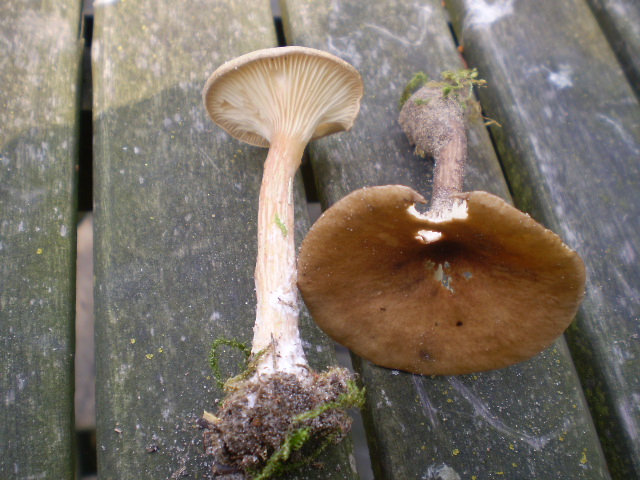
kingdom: Fungi
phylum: Basidiomycota
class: Agaricomycetes
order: Agaricales
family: Tricholomataceae
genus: Infundibulicybe
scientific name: Infundibulicybe squamulosa
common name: småskællet tragthat
